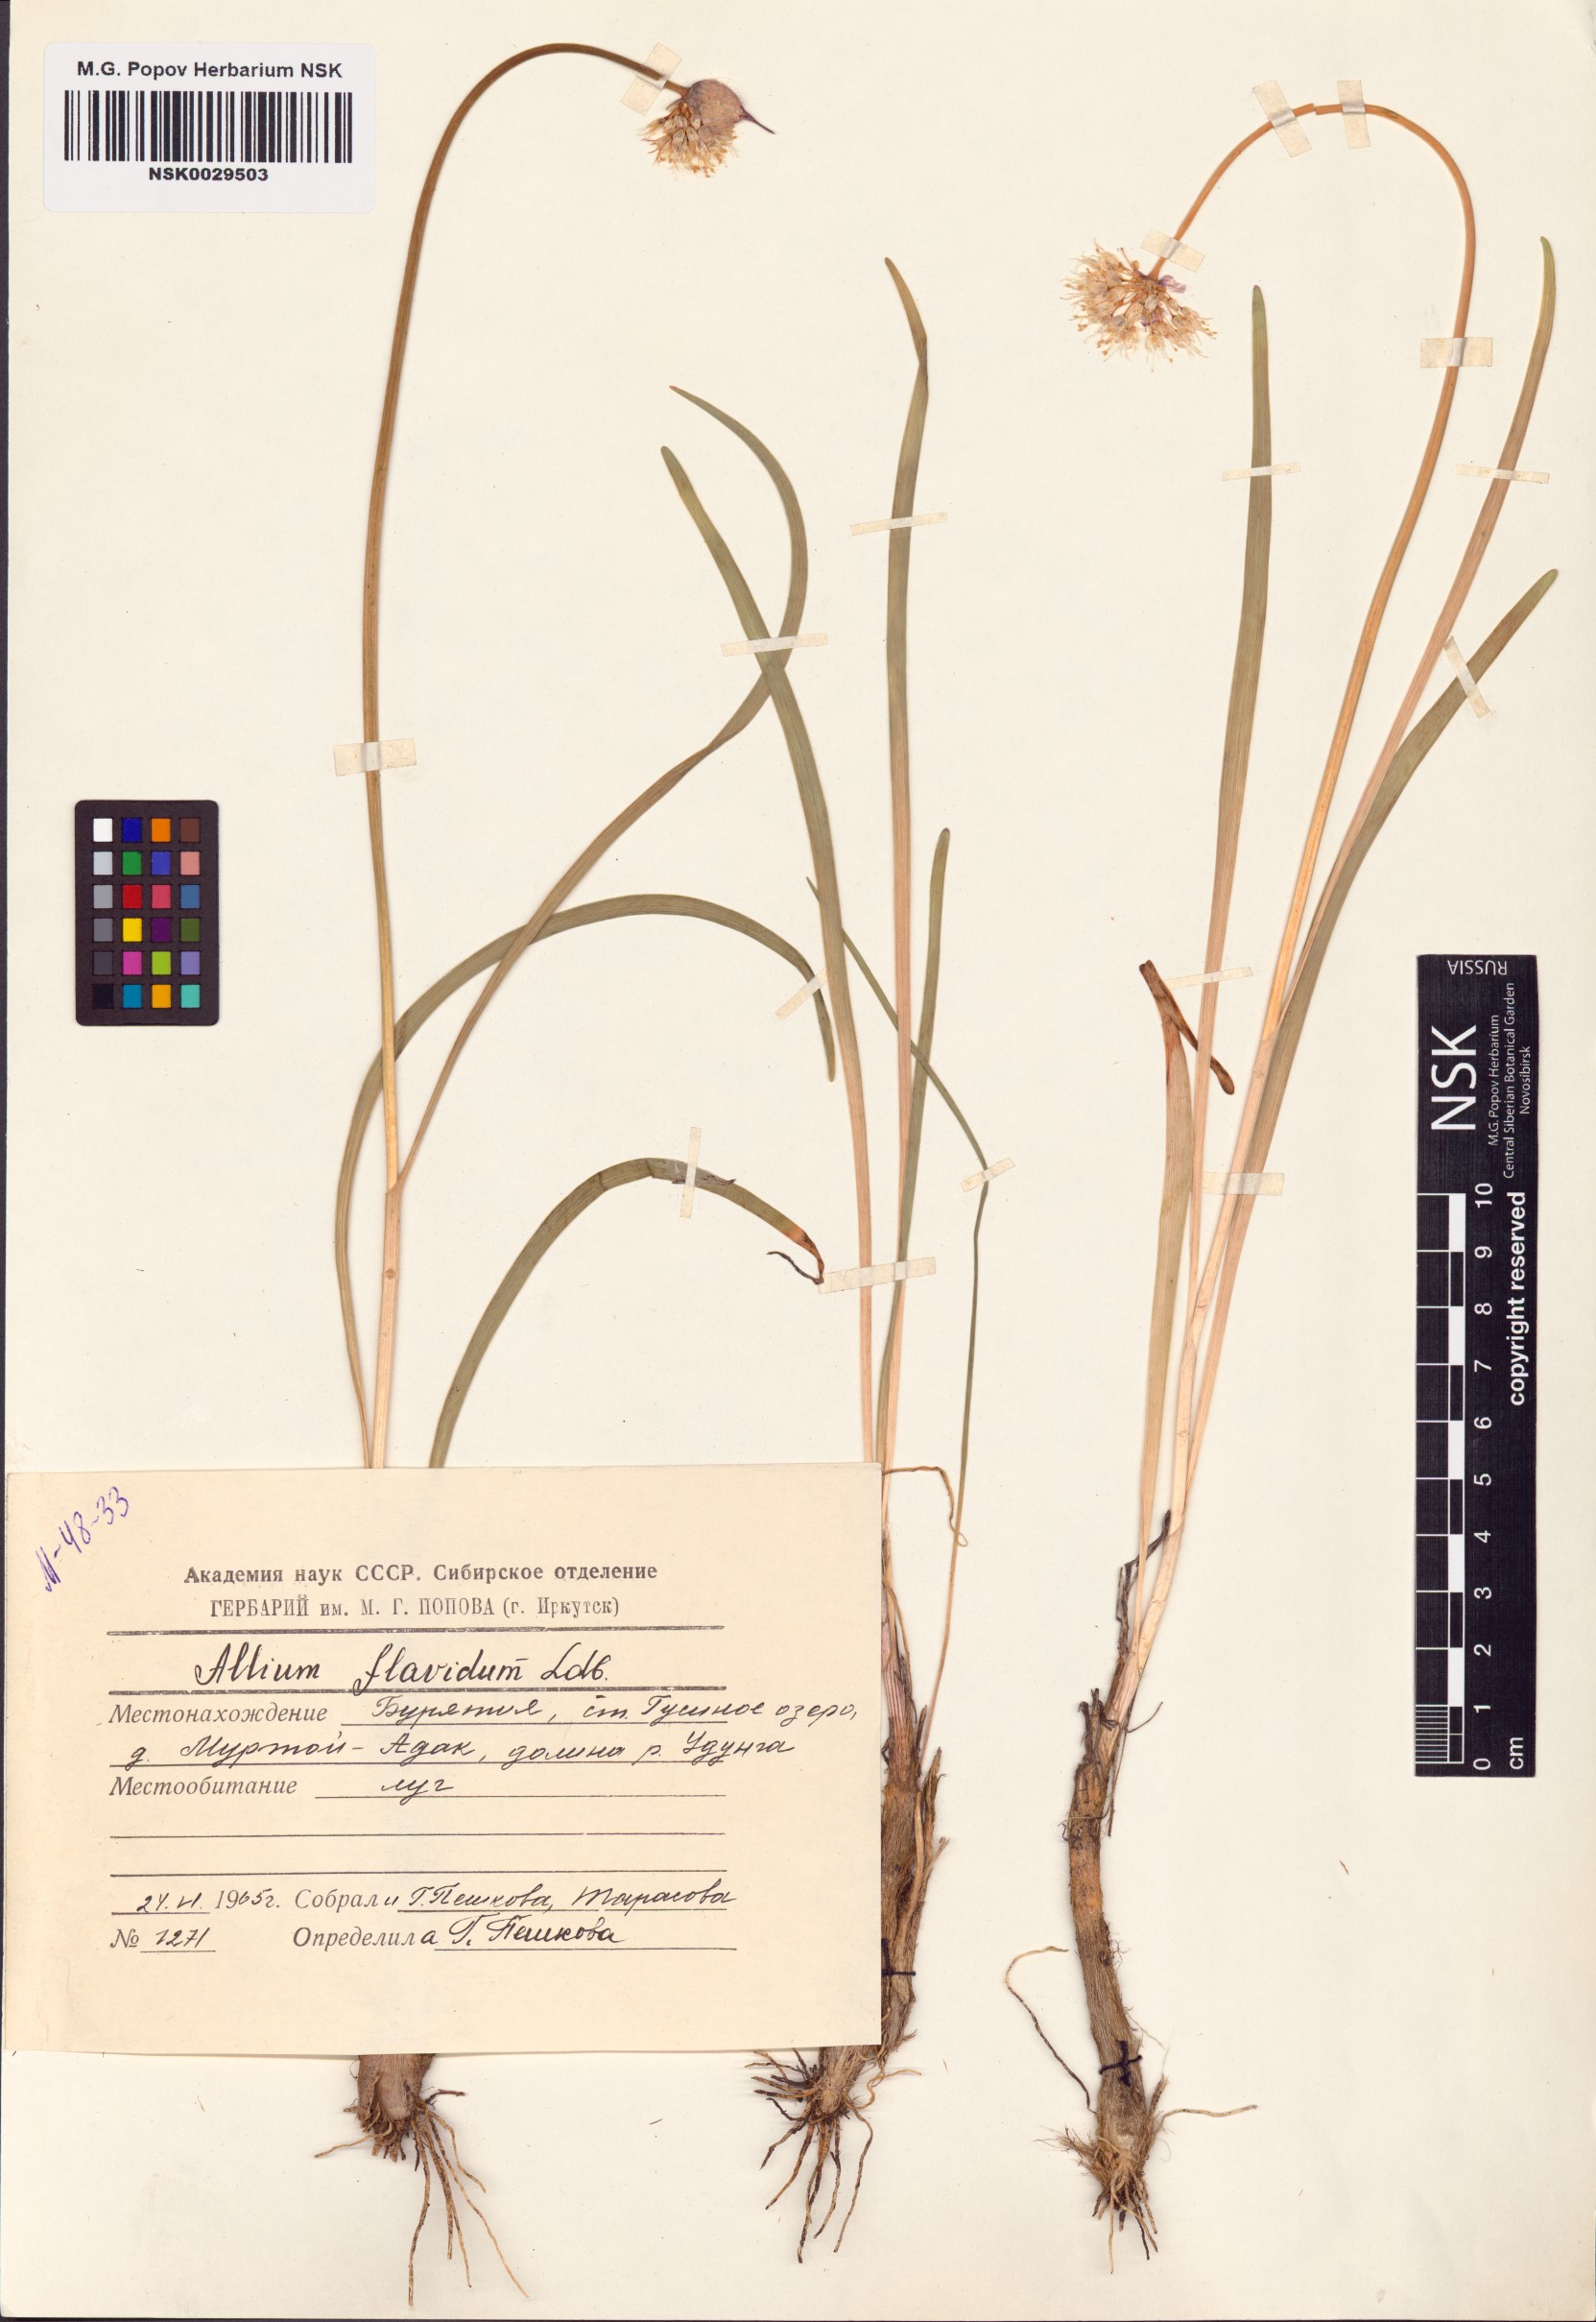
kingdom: Plantae
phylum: Tracheophyta
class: Liliopsida
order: Asparagales
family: Amaryllidaceae
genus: Allium
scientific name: Allium flavidum
